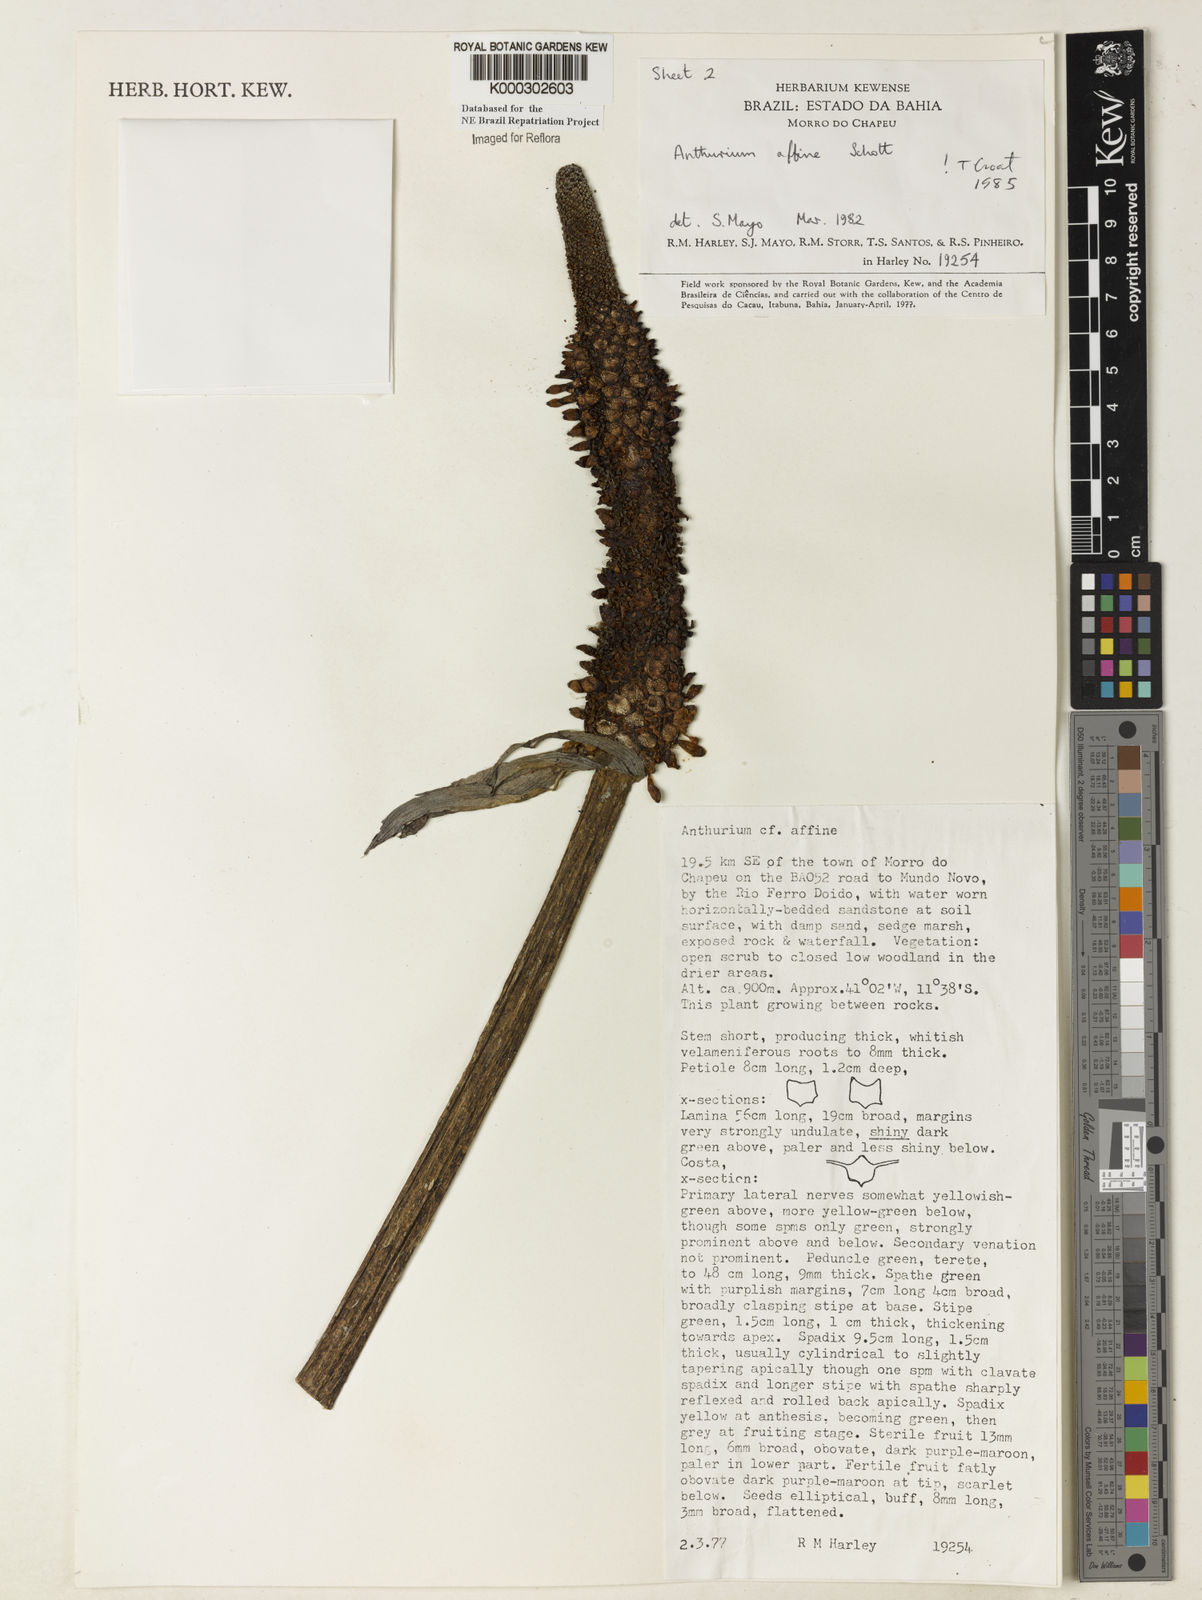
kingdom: Plantae
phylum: Tracheophyta
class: Liliopsida
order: Alismatales
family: Araceae
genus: Anthurium
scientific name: Anthurium affine
